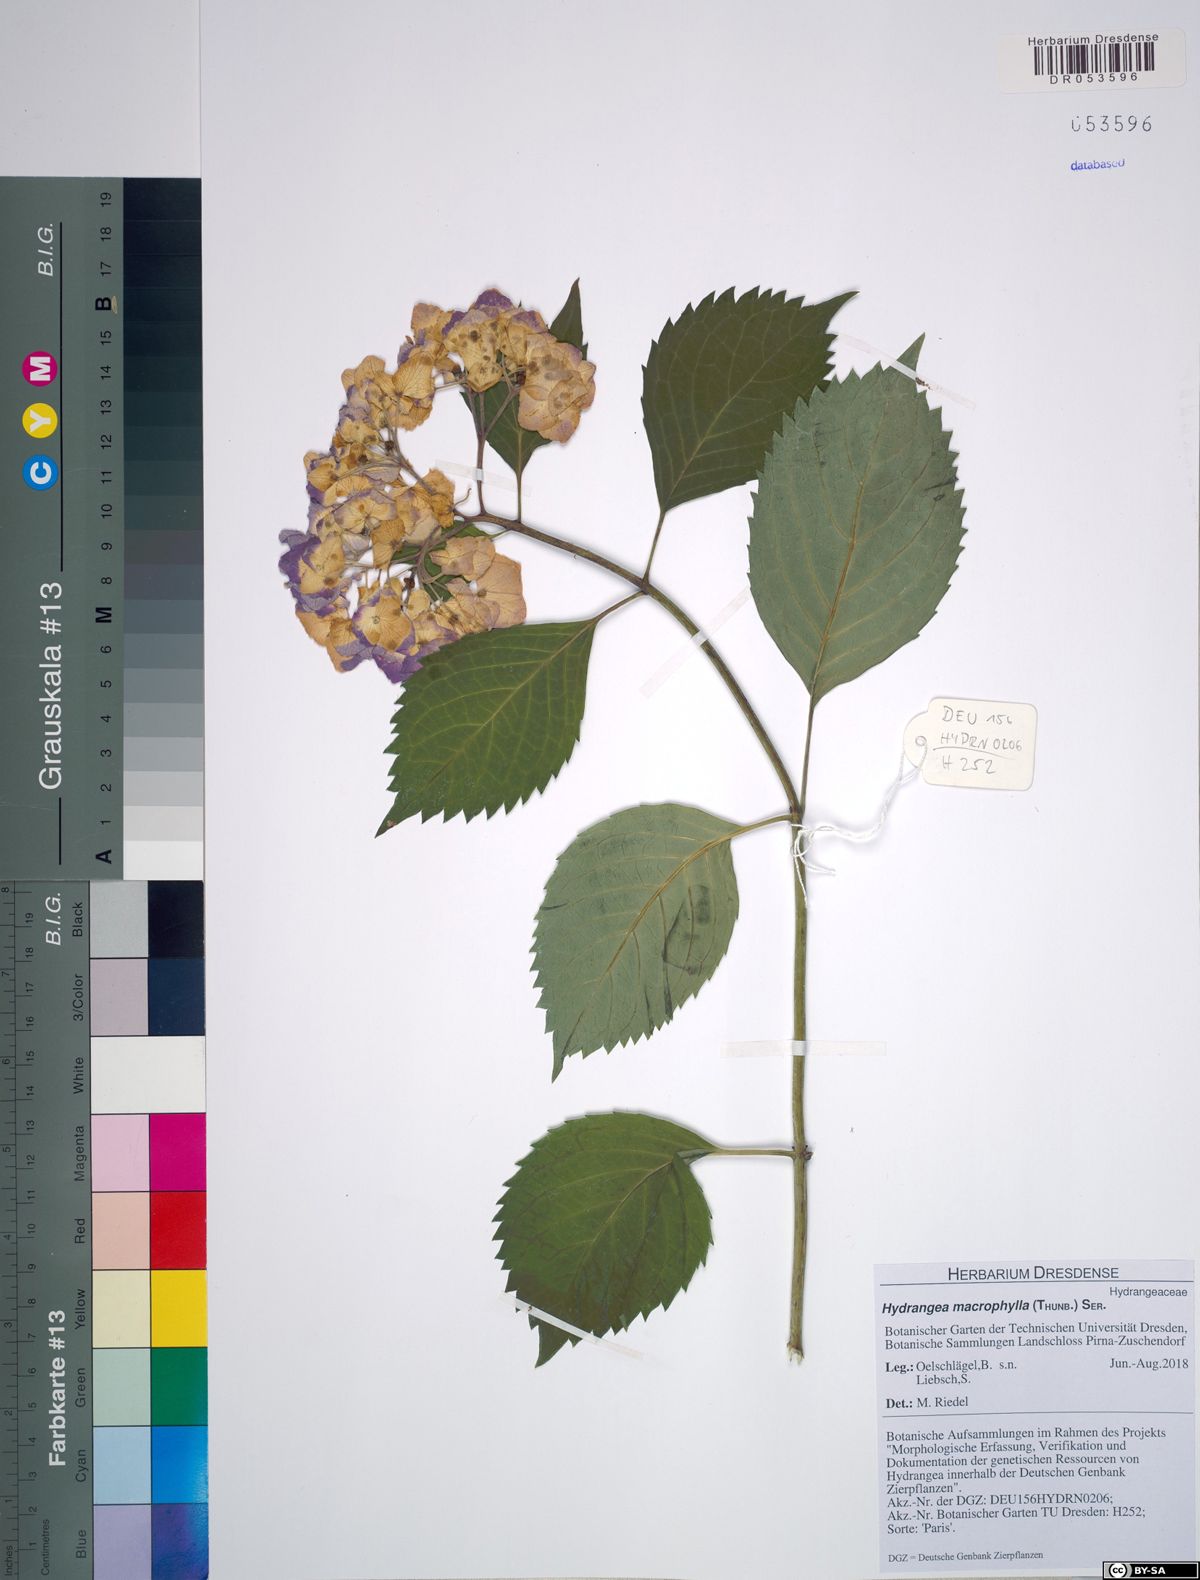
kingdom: Plantae
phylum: Tracheophyta
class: Magnoliopsida
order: Cornales
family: Hydrangeaceae
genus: Hydrangea
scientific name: Hydrangea macrophylla
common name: Hydrangea
